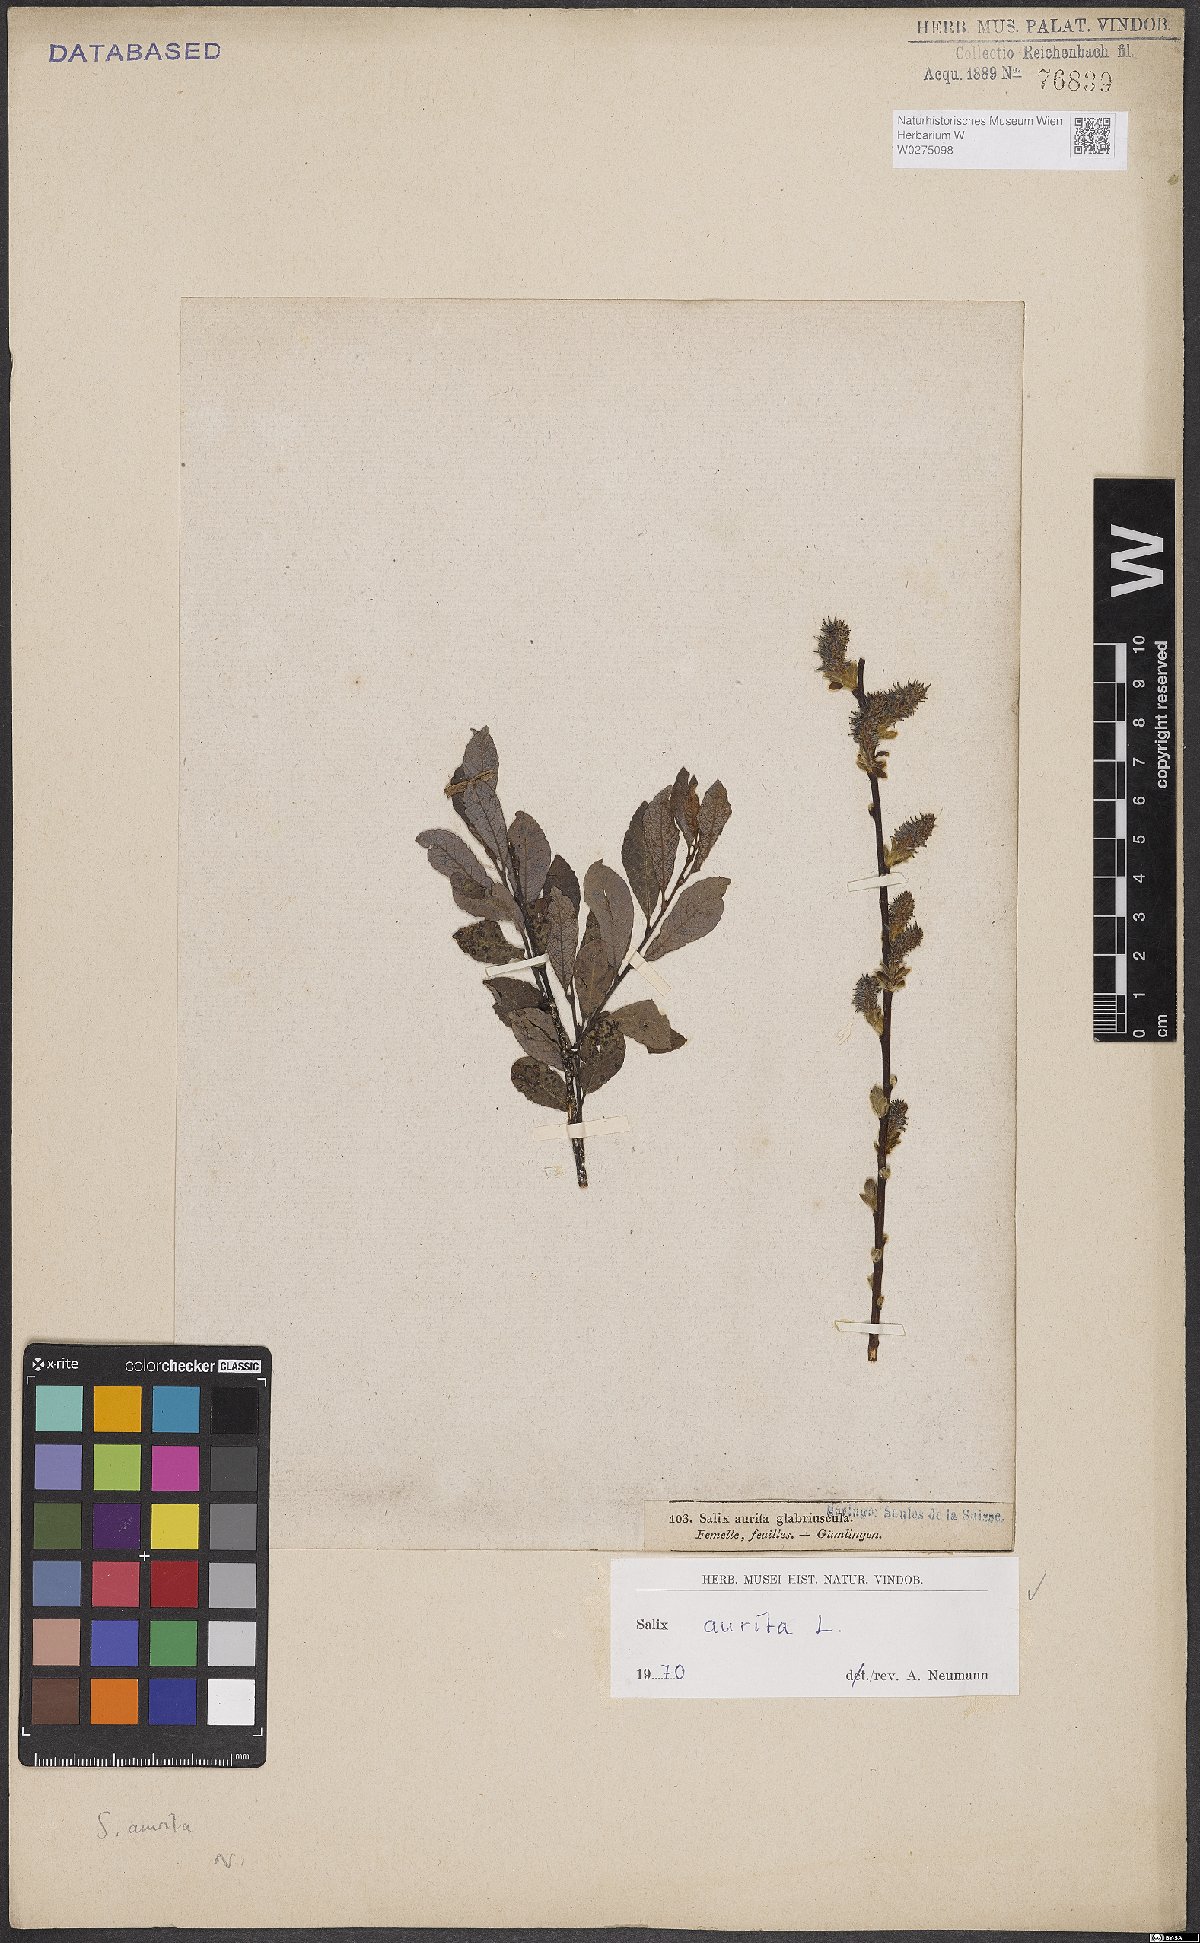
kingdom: Plantae
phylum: Tracheophyta
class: Magnoliopsida
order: Malpighiales
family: Salicaceae
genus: Salix
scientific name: Salix aurita
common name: Eared willow
